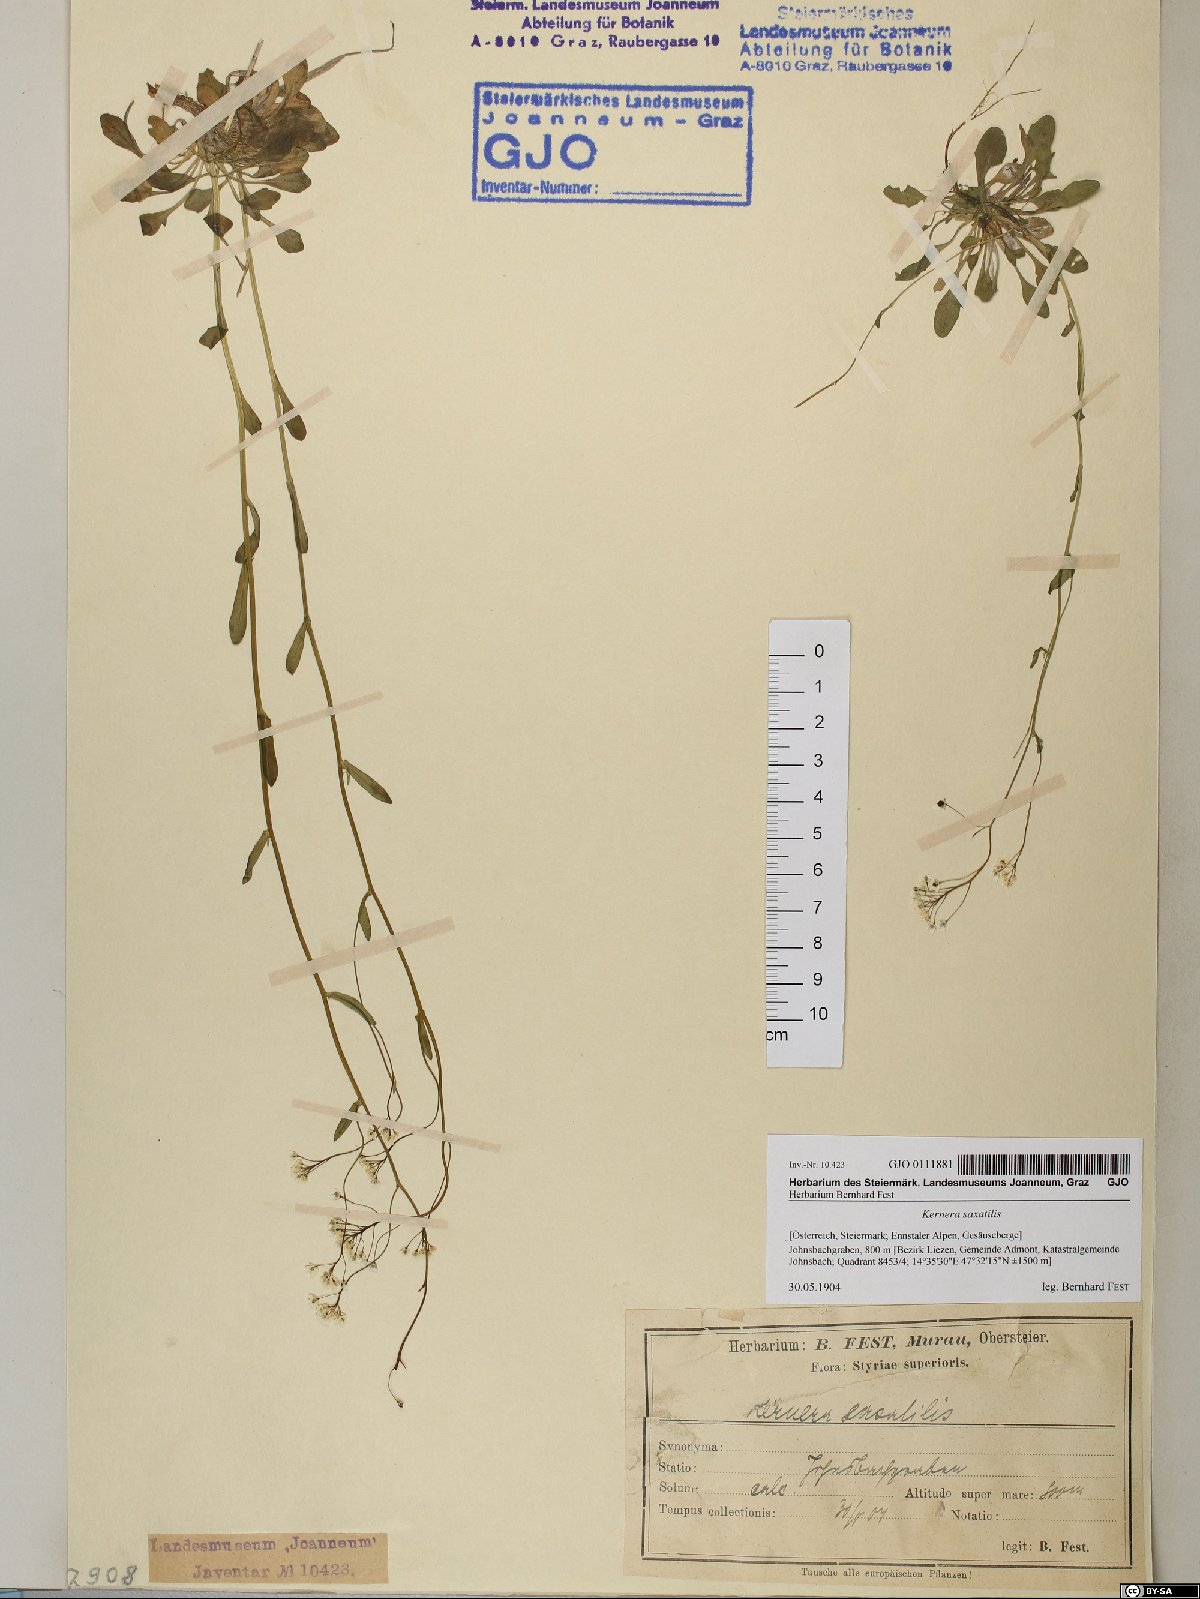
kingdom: Plantae
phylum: Tracheophyta
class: Magnoliopsida
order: Brassicales
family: Brassicaceae
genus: Kernera
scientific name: Kernera saxatilis
